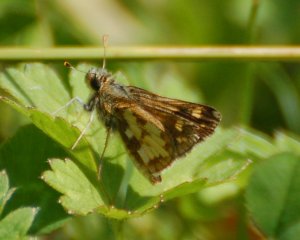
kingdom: Animalia
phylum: Arthropoda
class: Insecta
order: Lepidoptera
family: Hesperiidae
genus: Polites
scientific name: Polites coras
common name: Peck's Skipper
